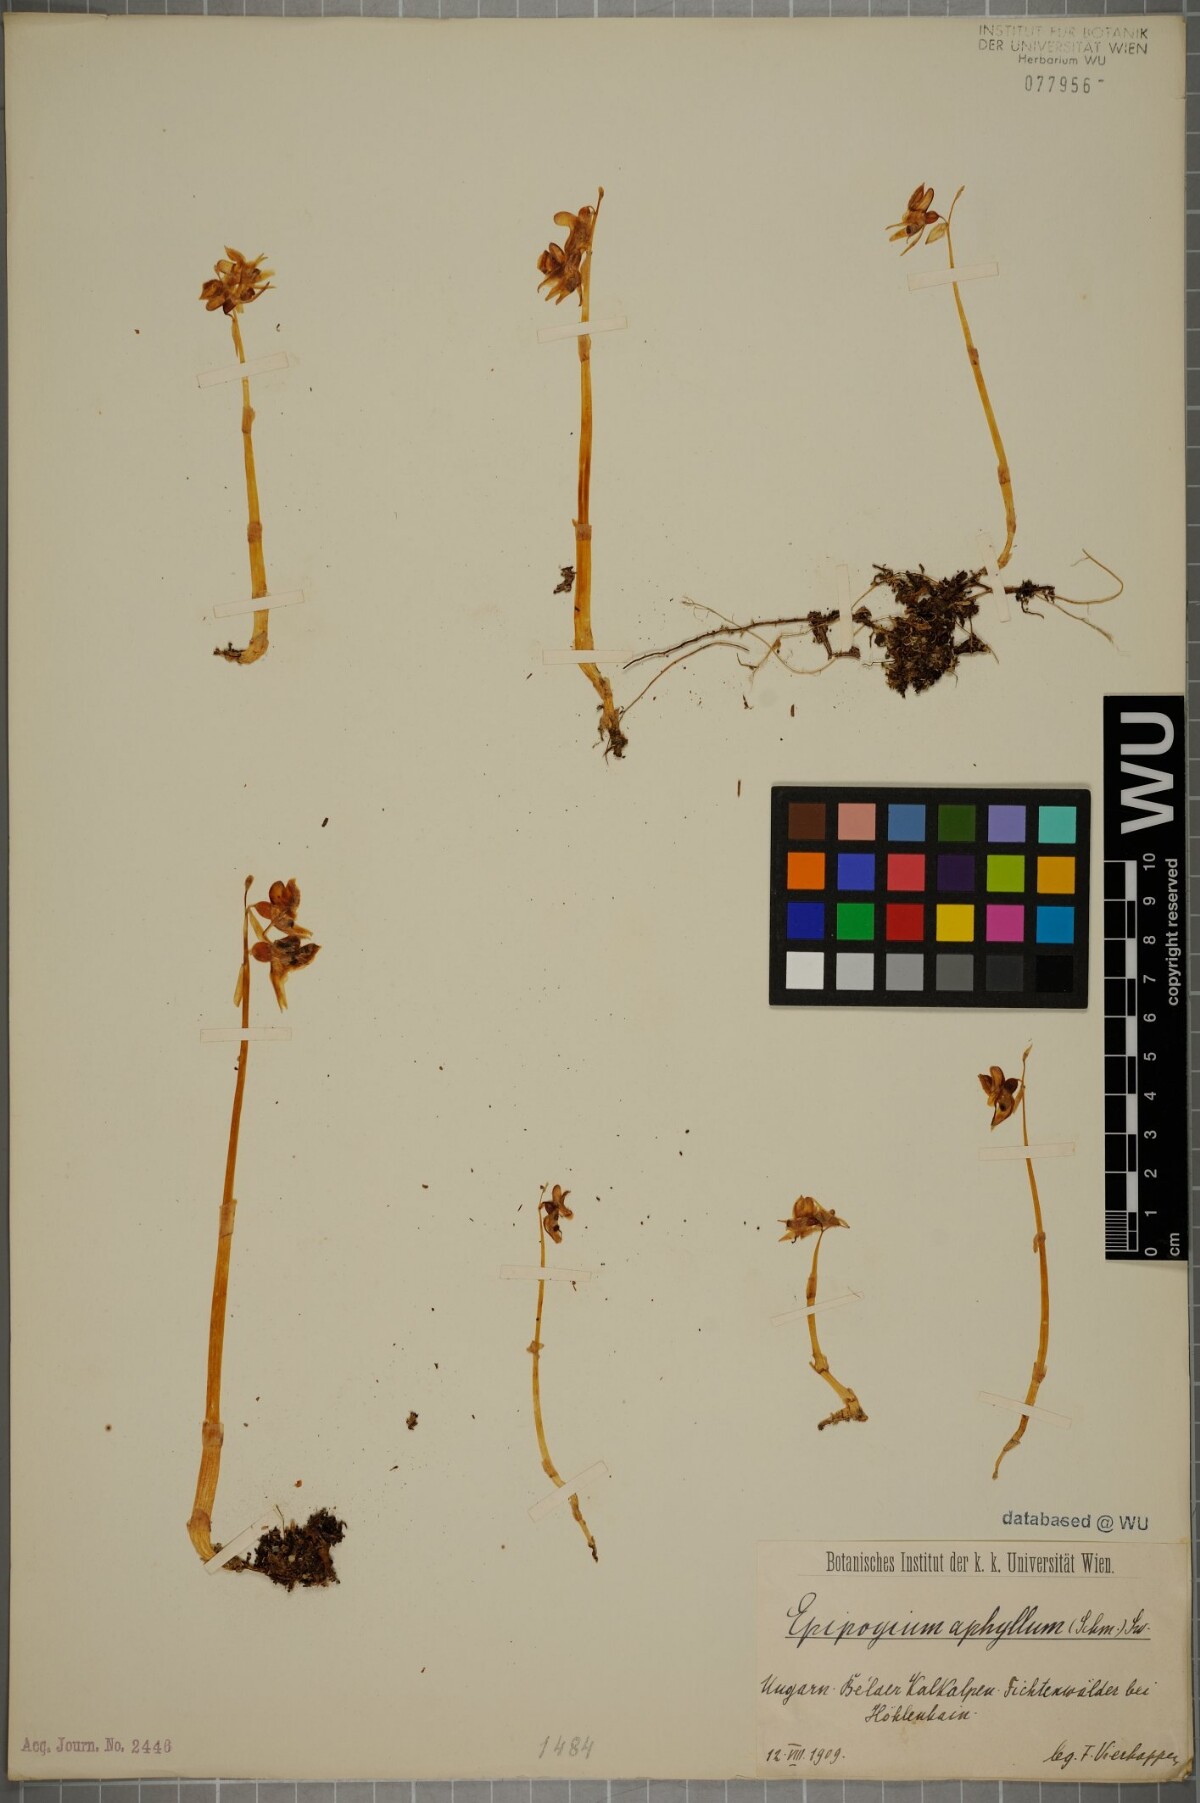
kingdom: Plantae
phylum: Tracheophyta
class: Liliopsida
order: Asparagales
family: Orchidaceae
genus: Epipogium
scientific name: Epipogium aphyllum
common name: Ghost orchid
